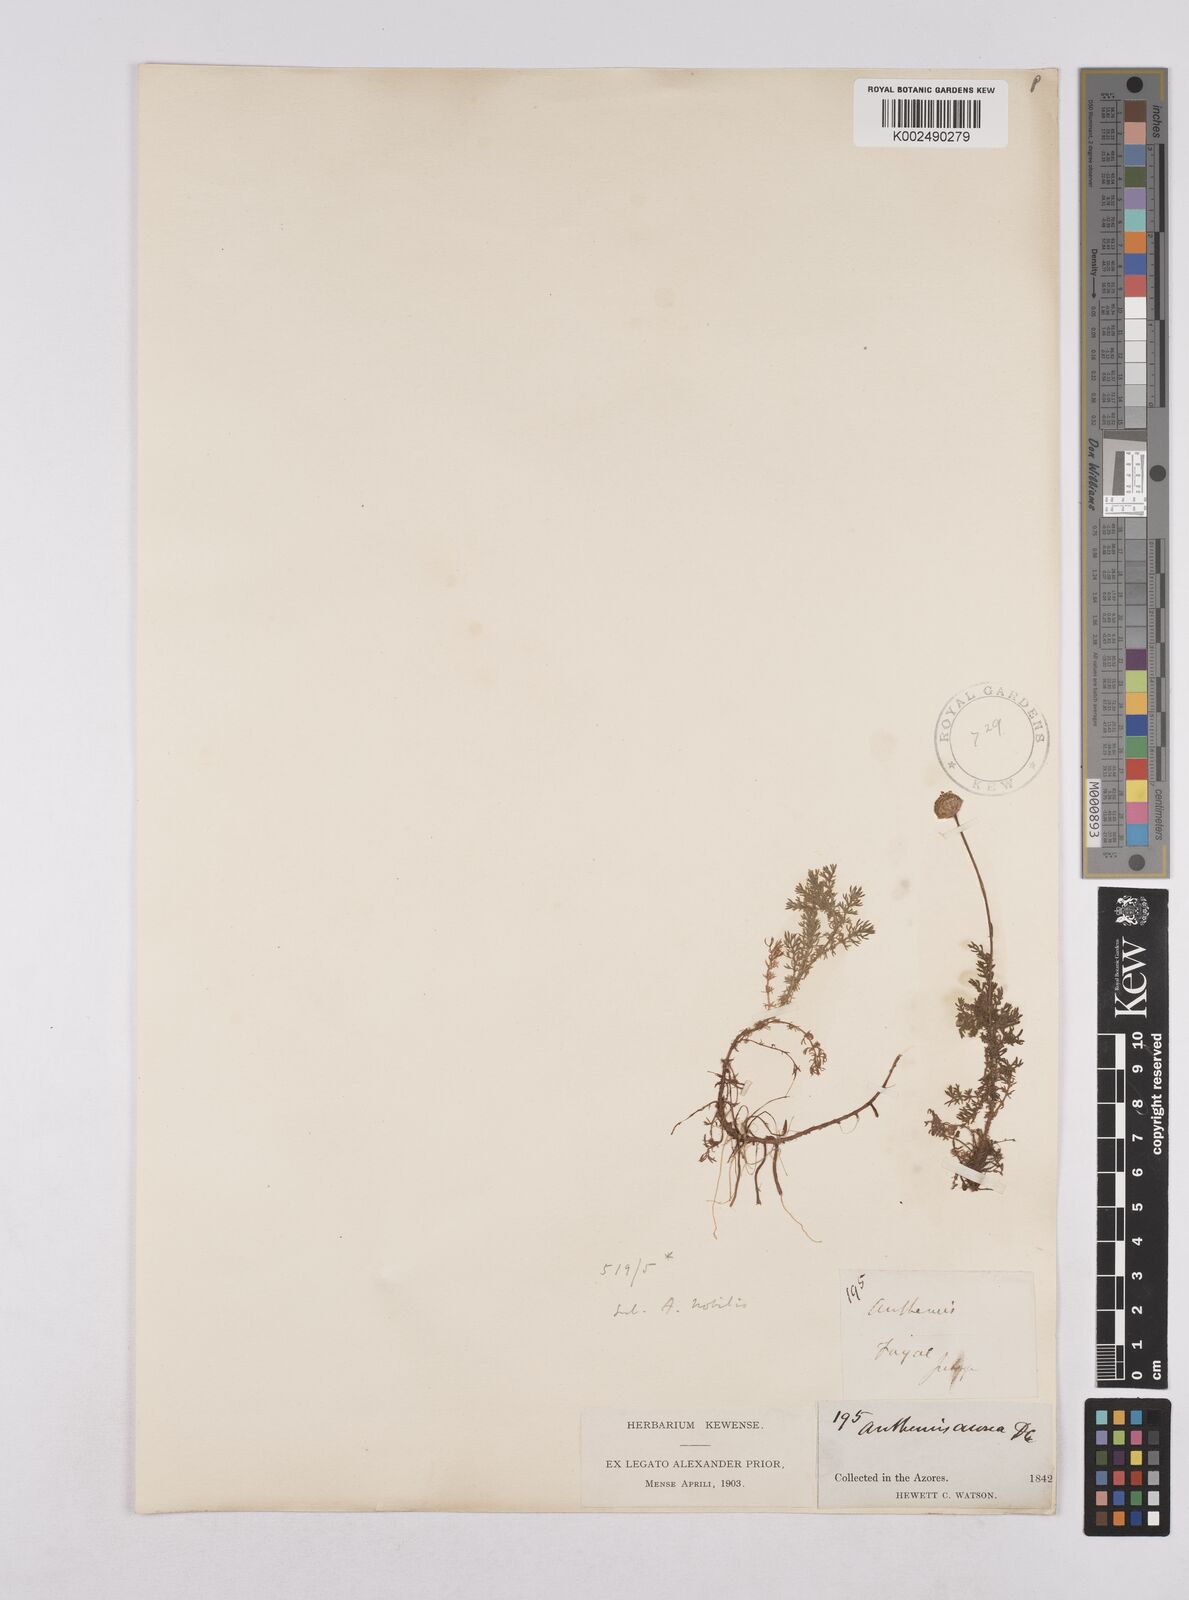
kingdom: Plantae
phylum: Tracheophyta
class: Magnoliopsida
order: Asterales
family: Asteraceae
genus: Cota
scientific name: Cota tinctoria
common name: Golden chamomile
